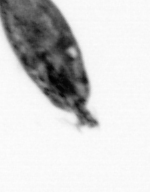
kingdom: Animalia
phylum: Arthropoda
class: Maxillopoda
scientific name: Maxillopoda
